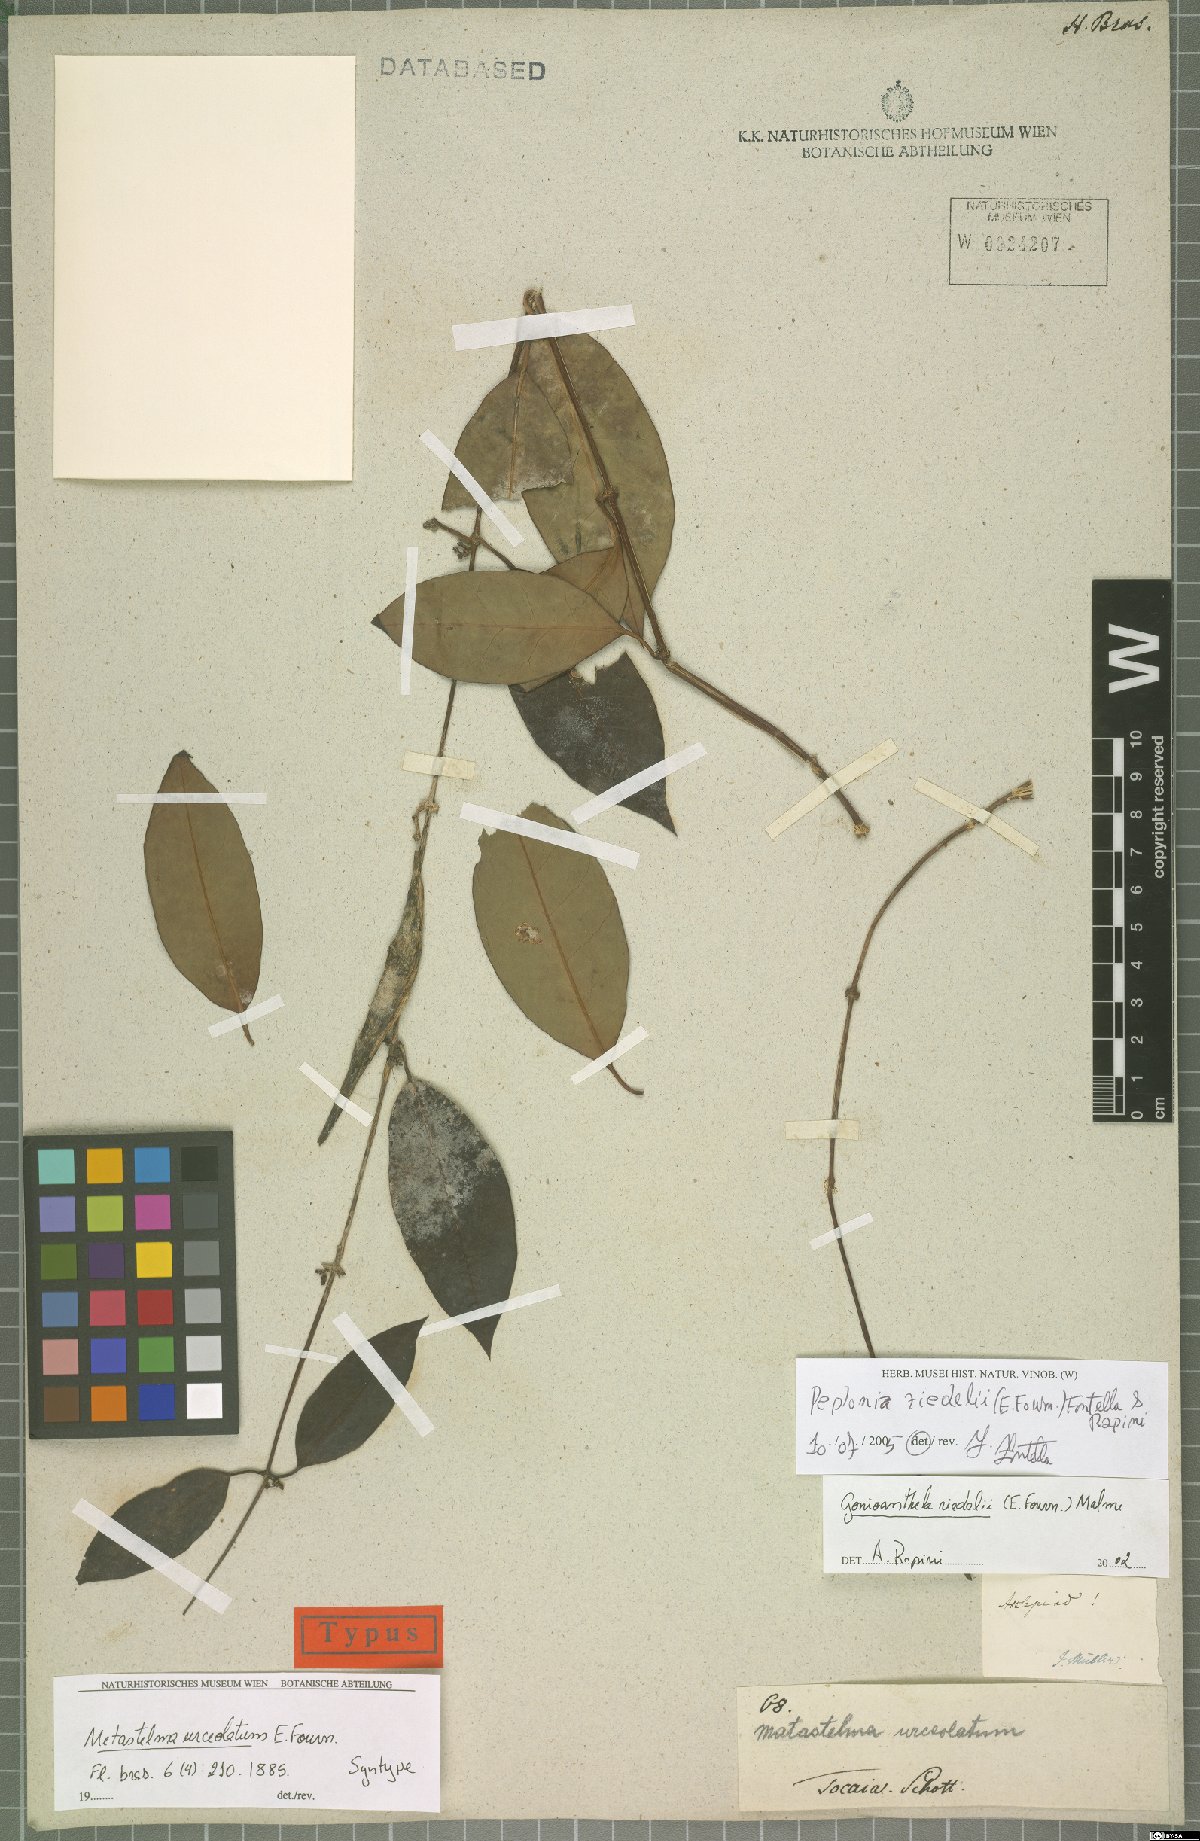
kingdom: Plantae
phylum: Tracheophyta
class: Magnoliopsida
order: Gentianales
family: Apocynaceae
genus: Peplonia
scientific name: Peplonia riedelii
